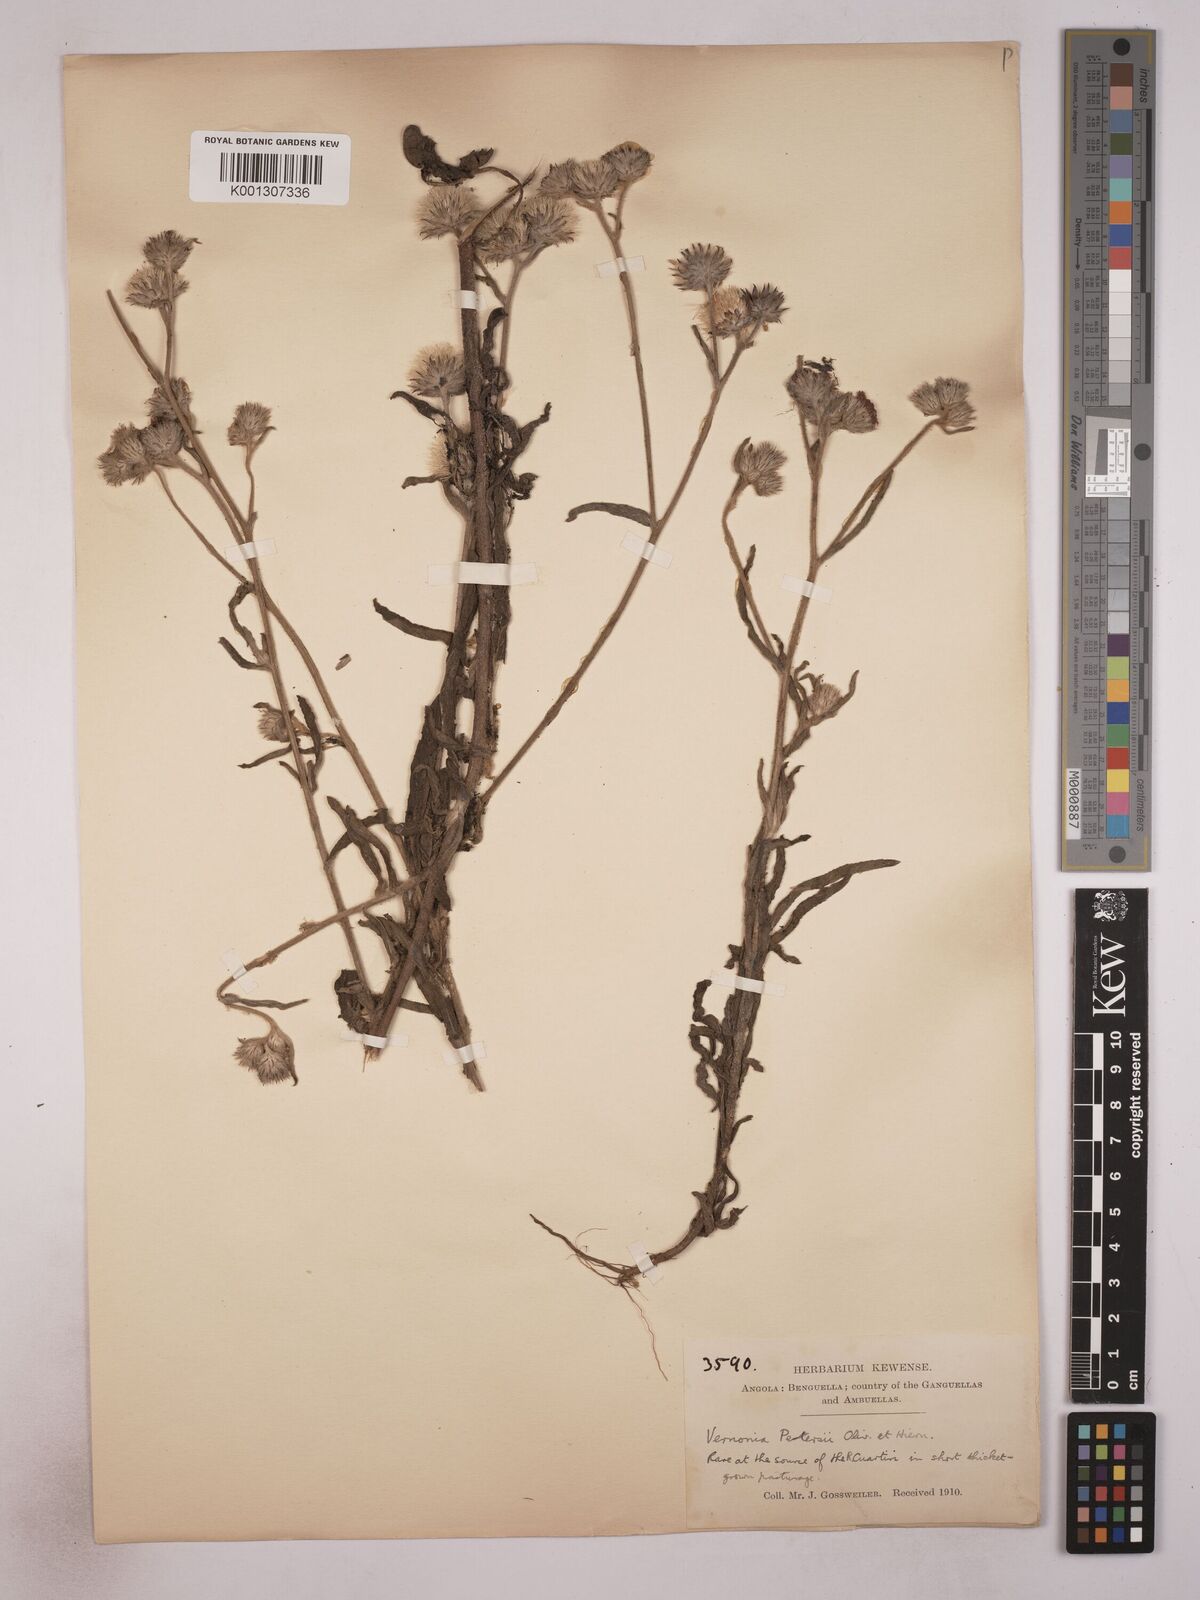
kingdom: Plantae
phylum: Tracheophyta
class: Magnoliopsida
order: Asterales
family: Asteraceae
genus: Vernoniastrum
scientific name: Vernoniastrum latifolium
